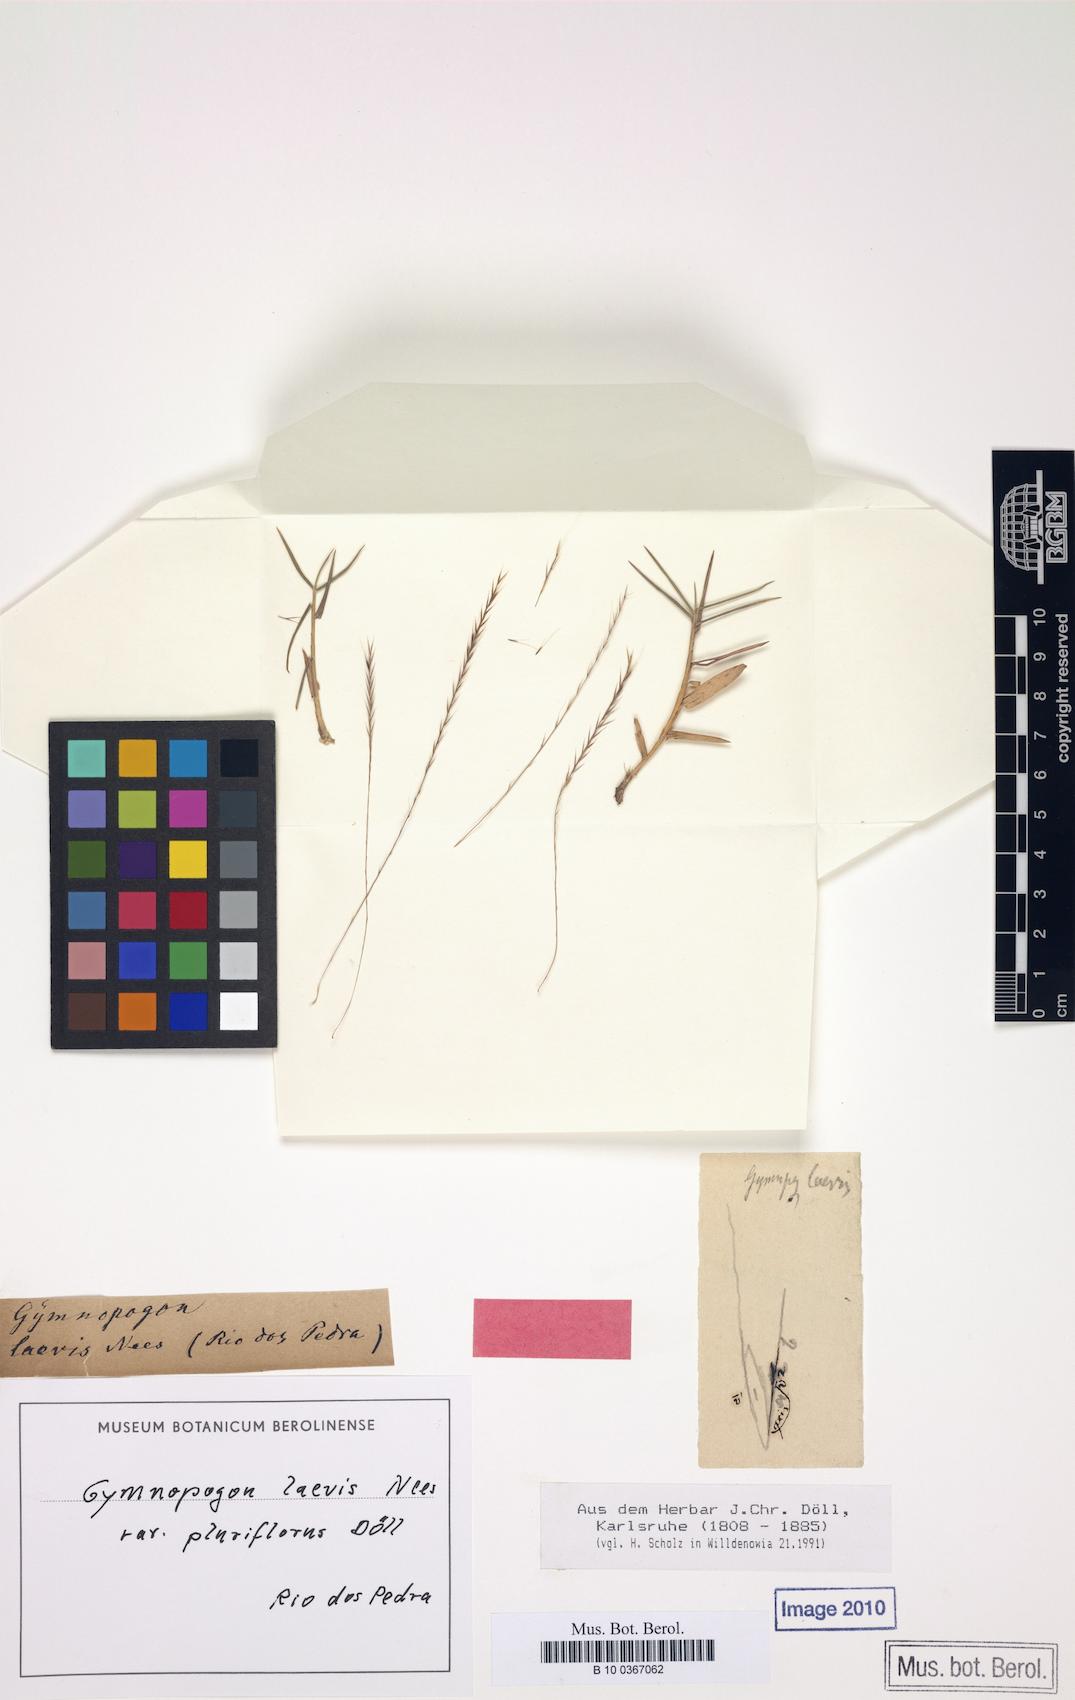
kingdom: Plantae
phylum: Tracheophyta
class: Liliopsida
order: Poales
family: Poaceae
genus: Gymnopogon
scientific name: Gymnopogon spicatus
